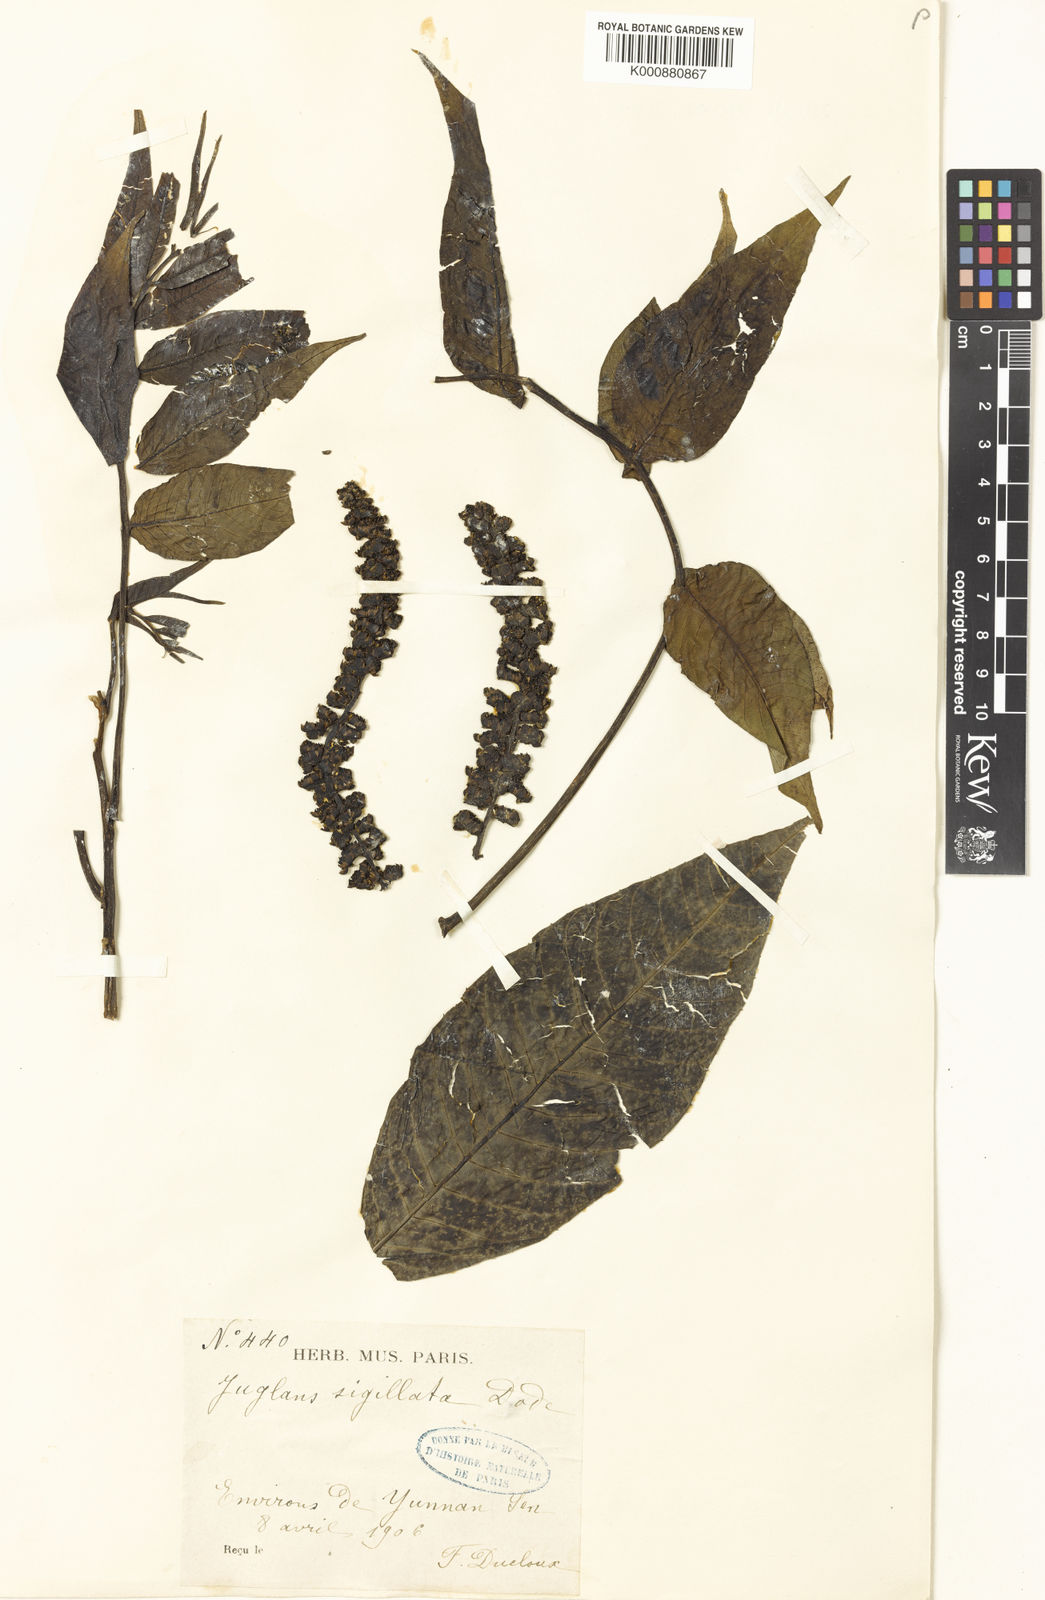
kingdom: Plantae
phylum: Tracheophyta
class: Magnoliopsida
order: Fagales
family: Juglandaceae
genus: Juglans
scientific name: Juglans sigillata
